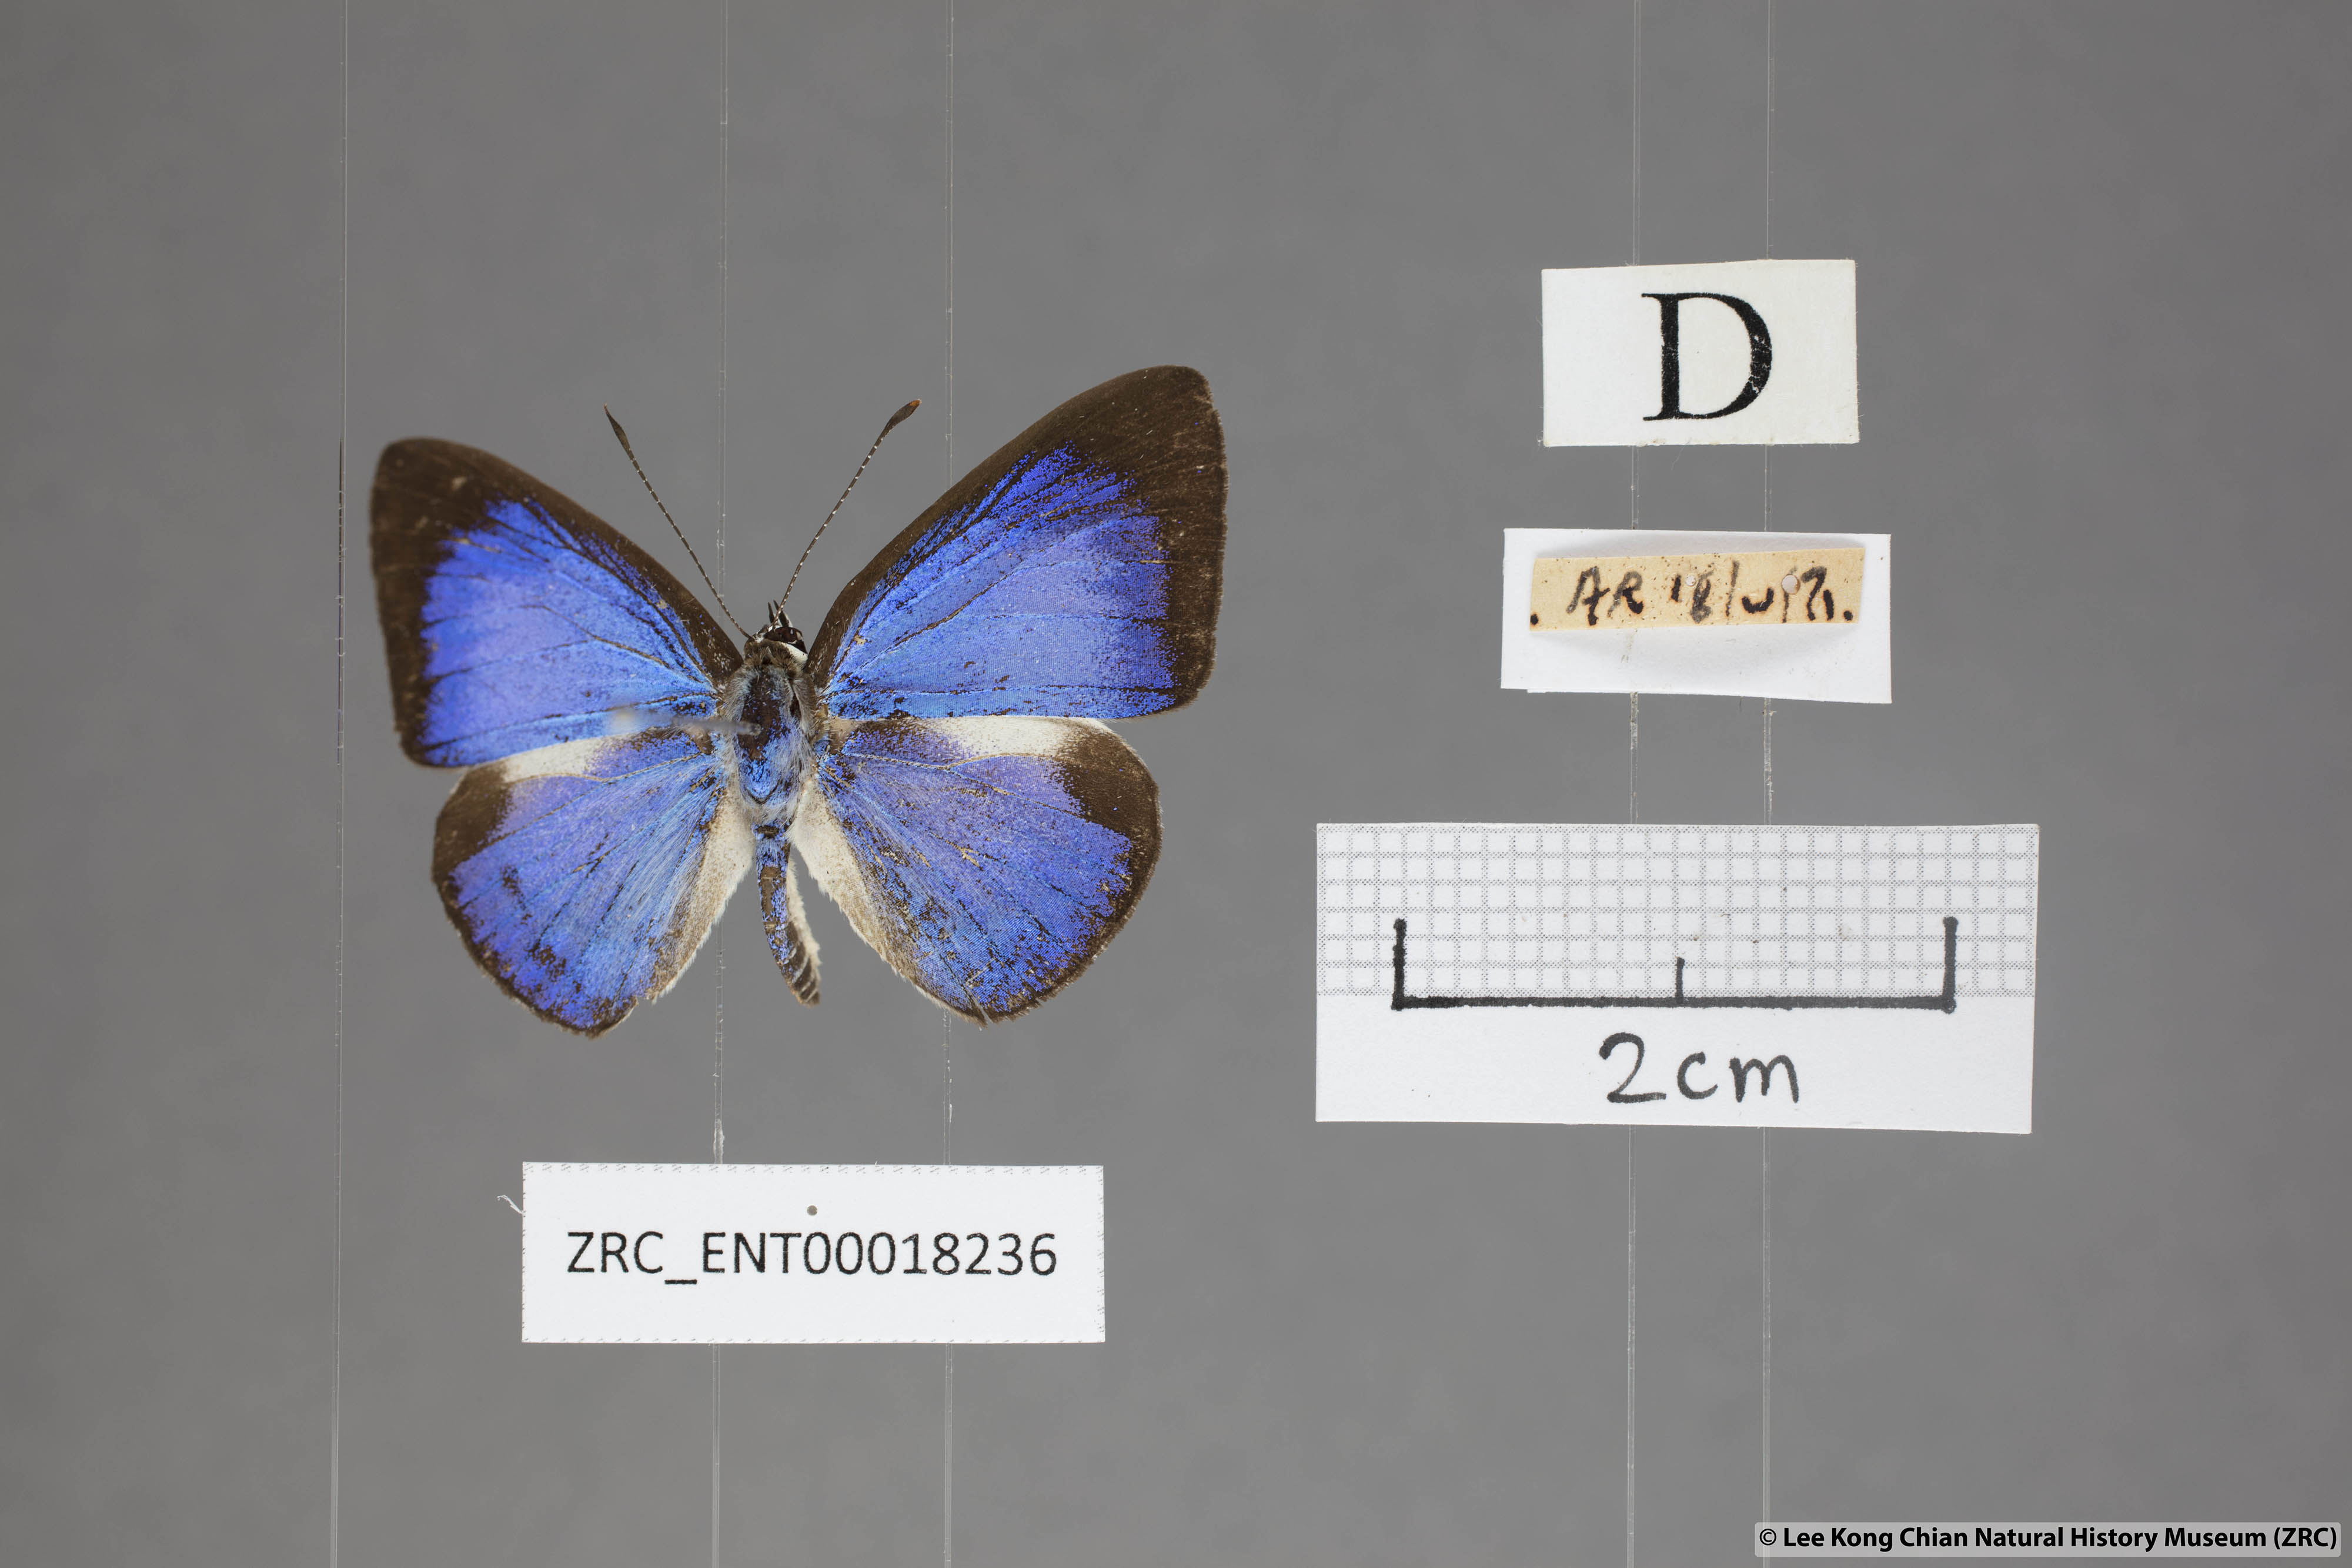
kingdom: Animalia
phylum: Arthropoda
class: Insecta
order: Lepidoptera
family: Lycaenidae
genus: Lycaenopsis
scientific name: Lycaenopsis haraldus
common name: Felder's hedge blue
